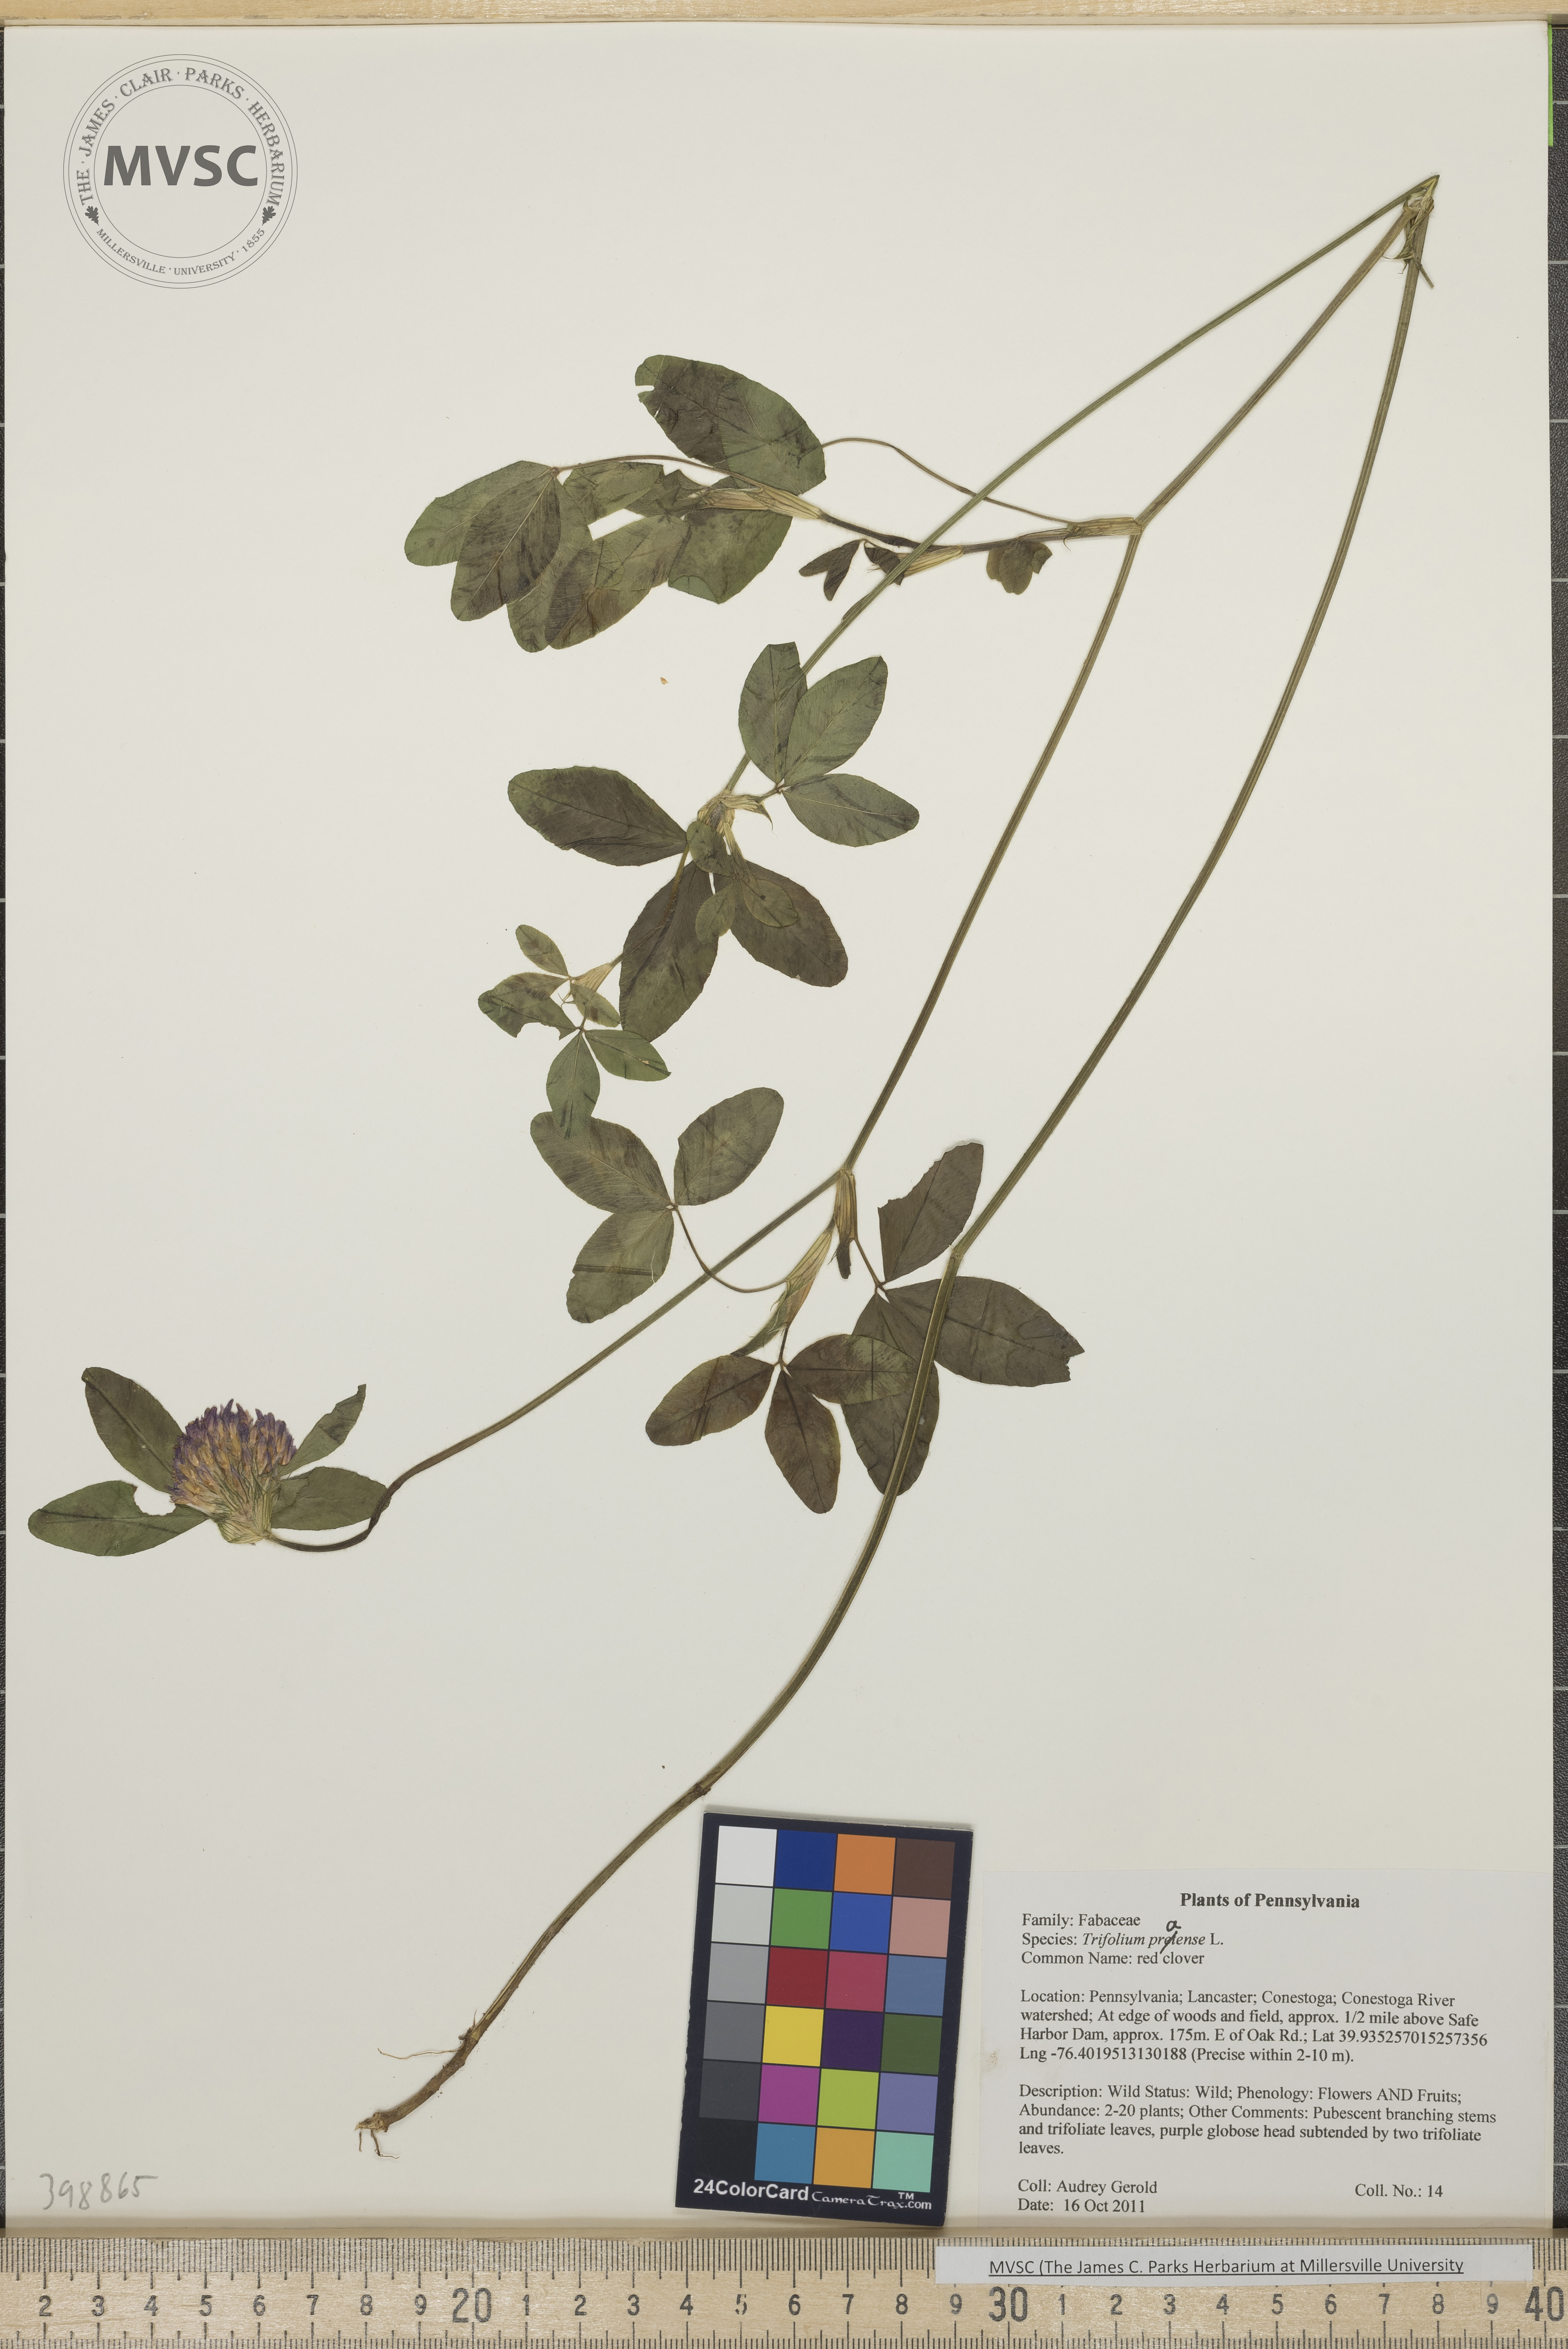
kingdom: Plantae
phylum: Tracheophyta
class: Magnoliopsida
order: Fabales
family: Fabaceae
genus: Trifolium
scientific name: Trifolium pratense
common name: Red clover
